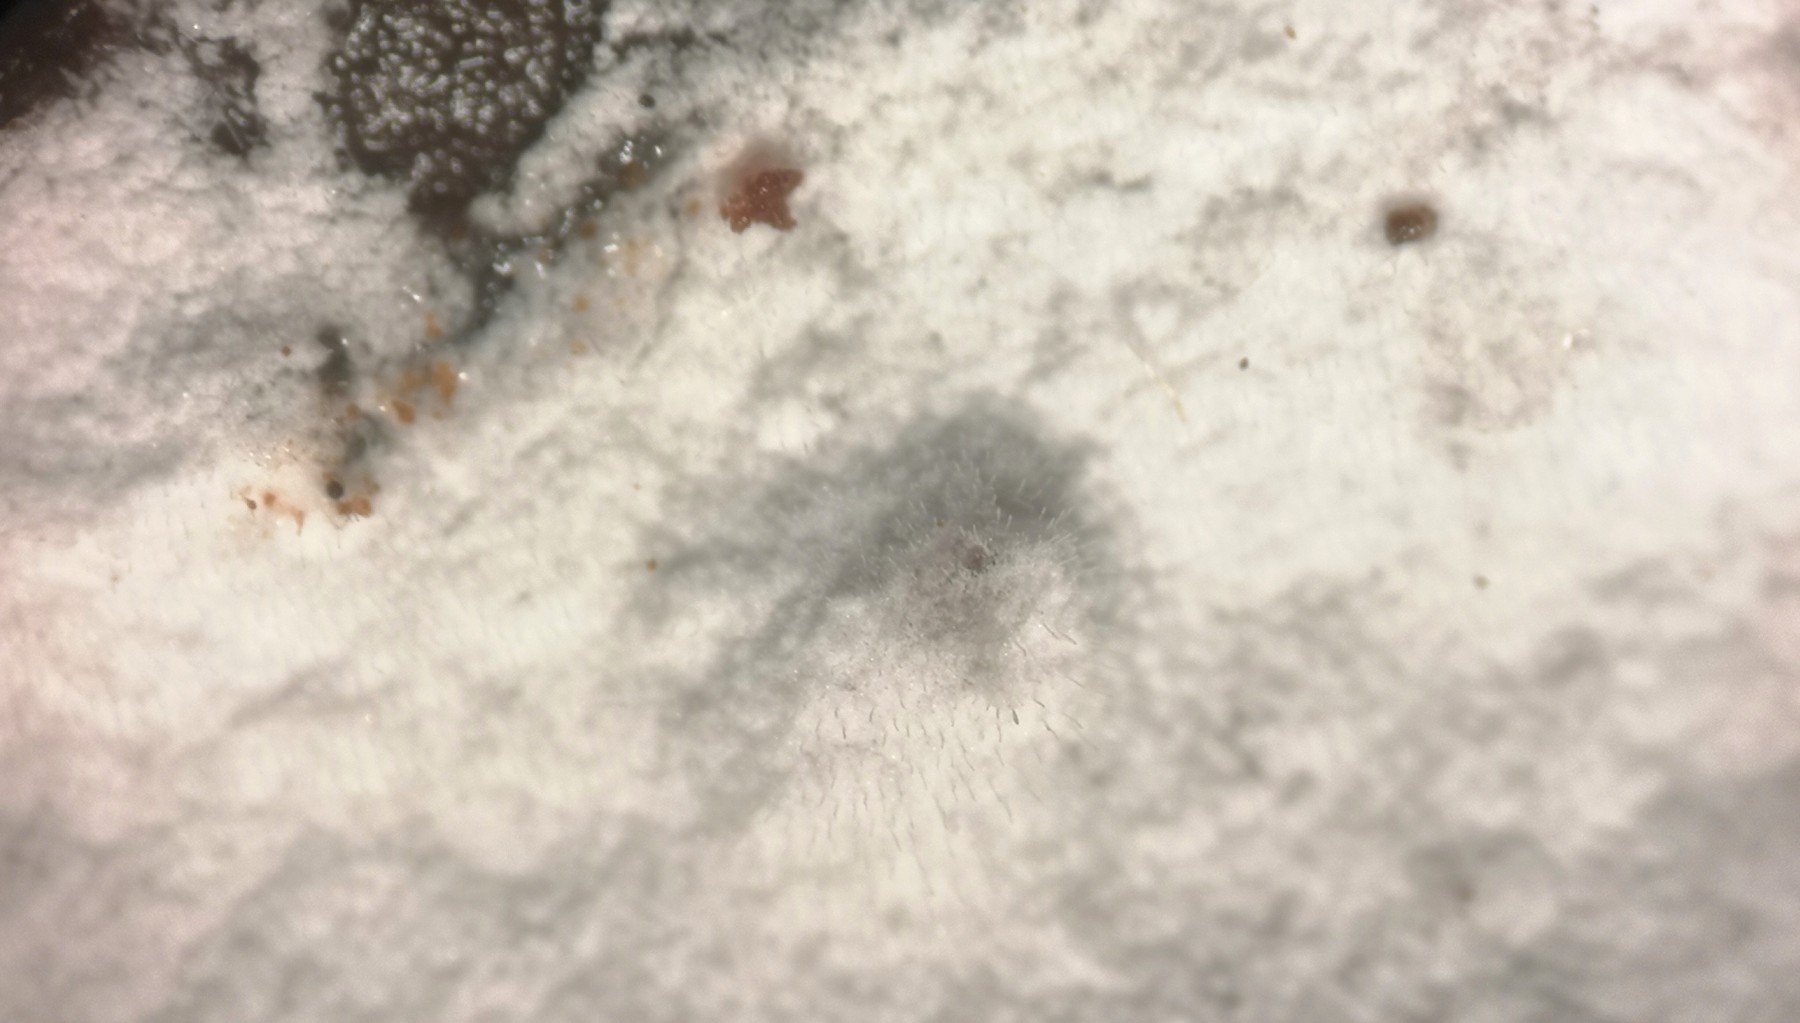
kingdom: Fungi
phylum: Basidiomycota
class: Agaricomycetes
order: Polyporales
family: Meruliaceae
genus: Gyrophanopsis
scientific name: Gyrophanopsis polonensis
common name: langhåret kalkskind
